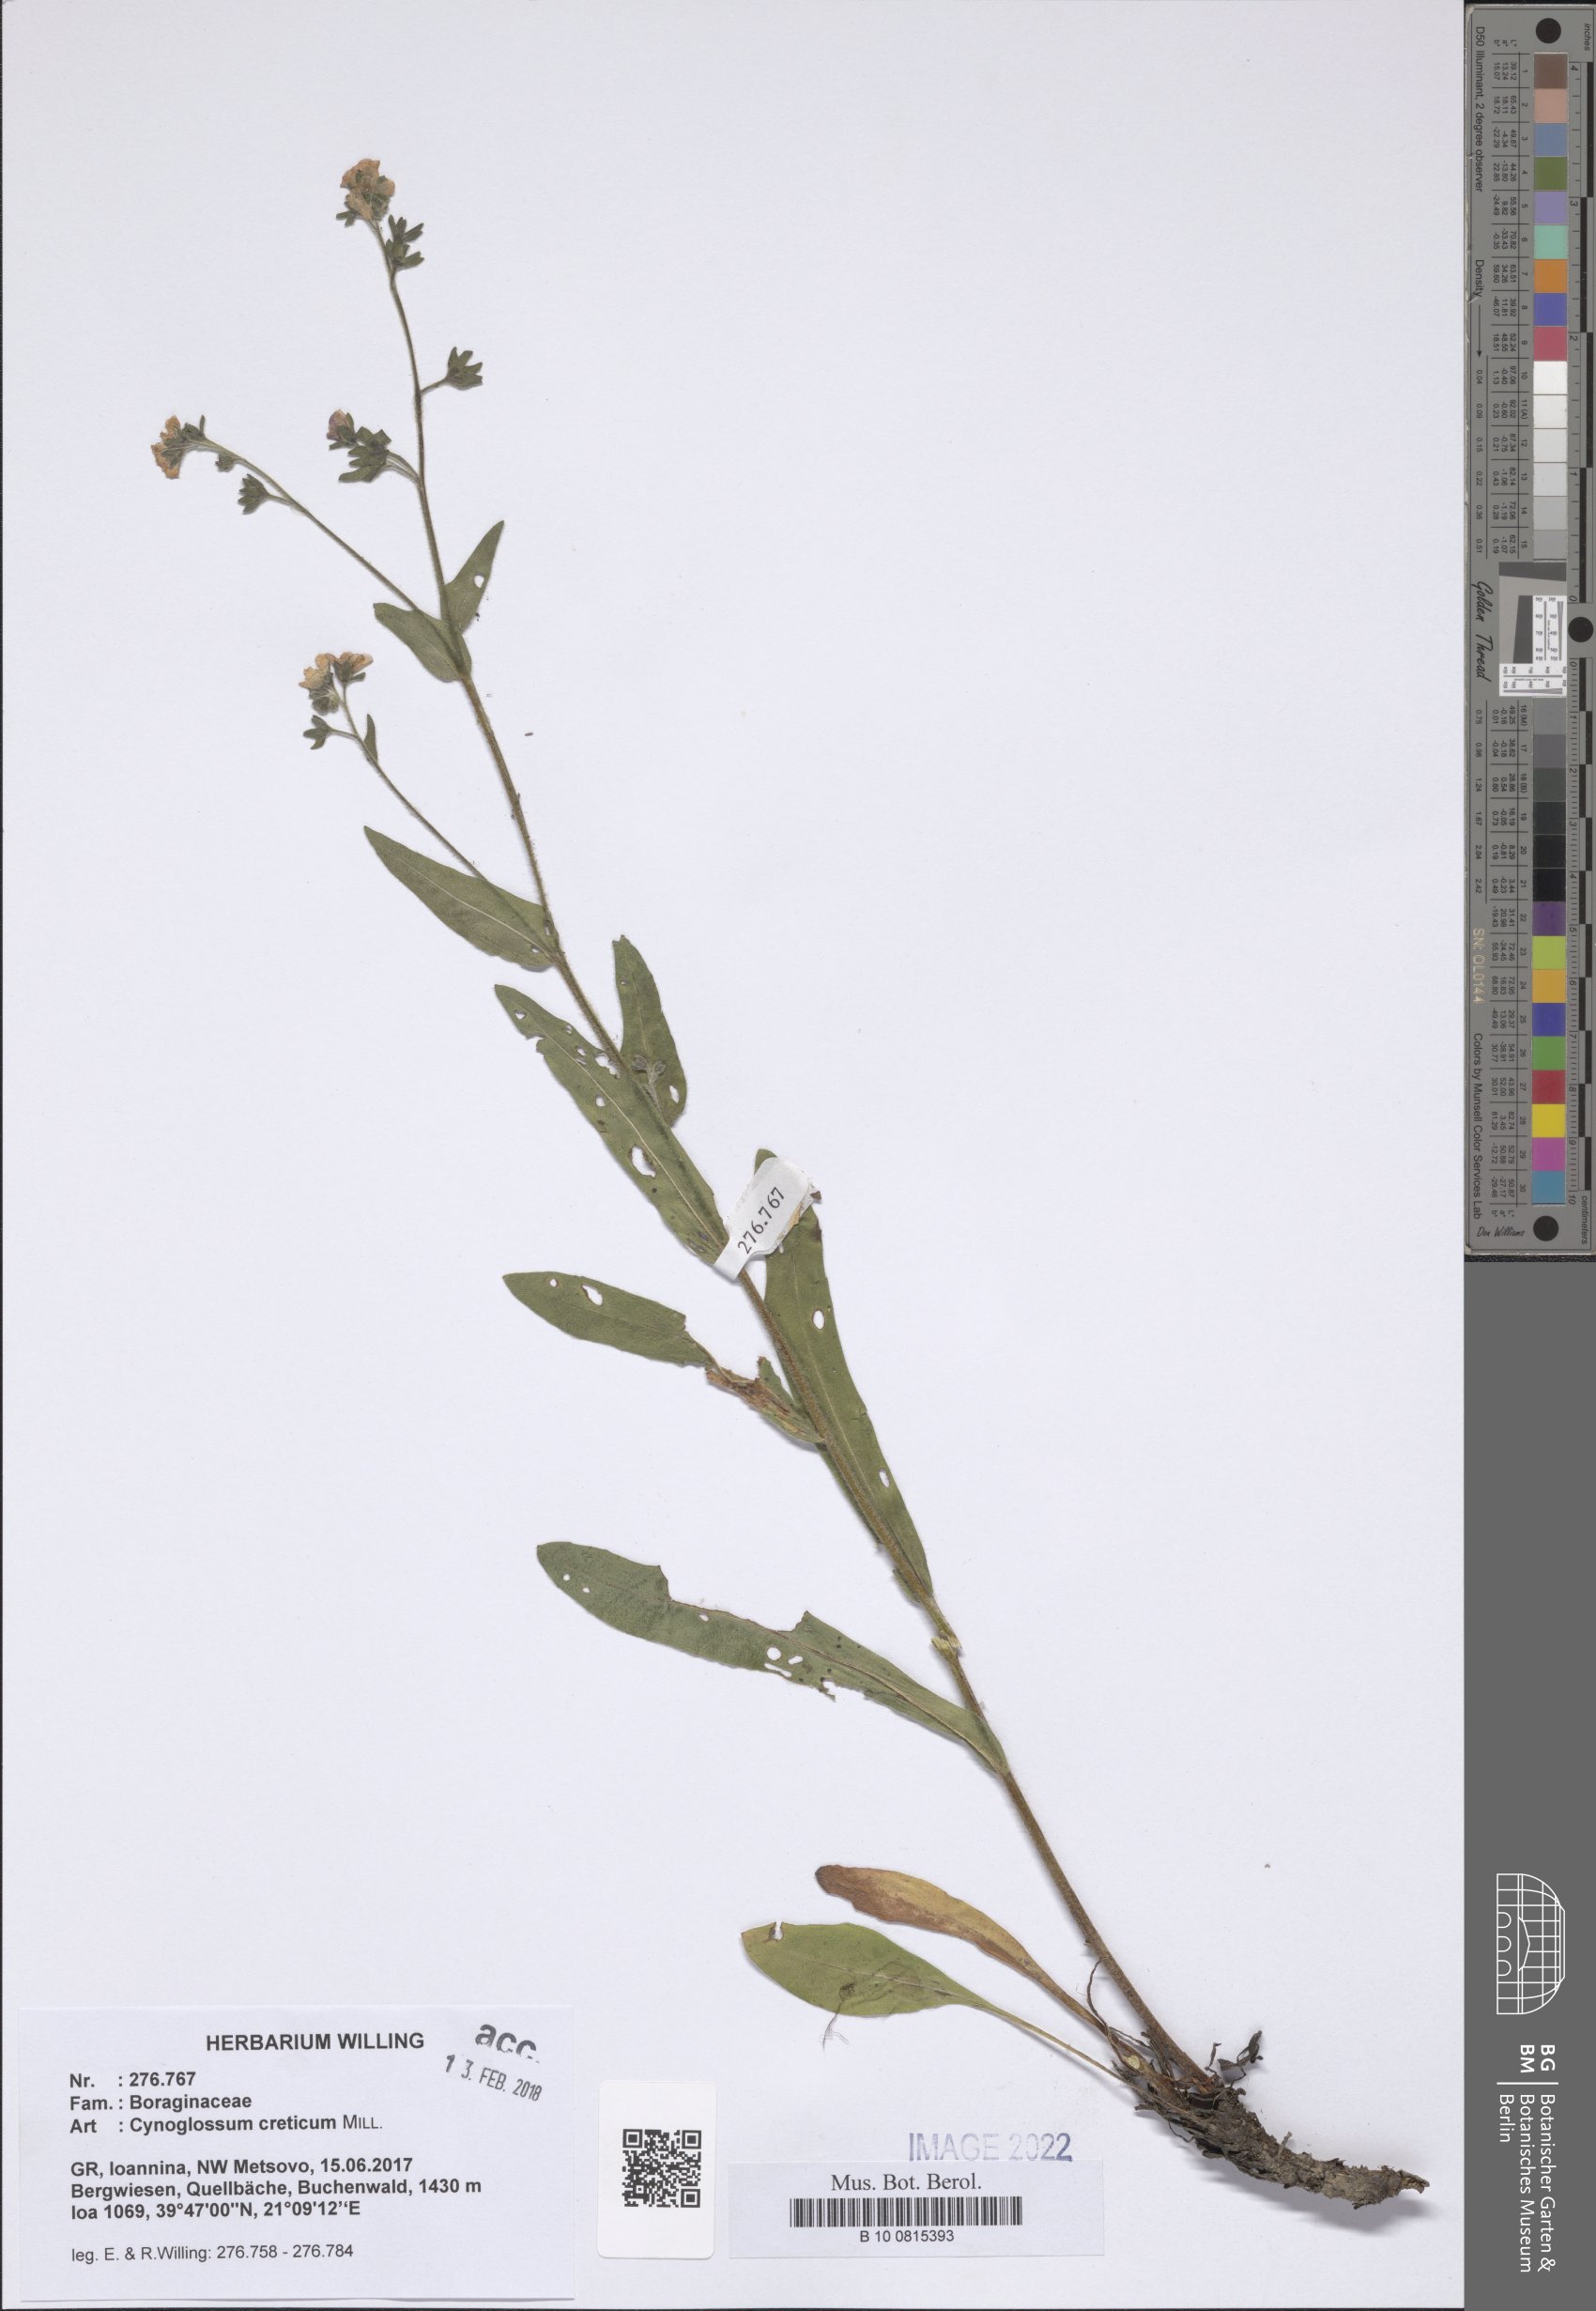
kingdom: Plantae
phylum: Tracheophyta
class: Magnoliopsida
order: Boraginales
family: Boraginaceae
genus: Cynoglossum
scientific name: Cynoglossum creticum
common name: Blue hound's tongue
